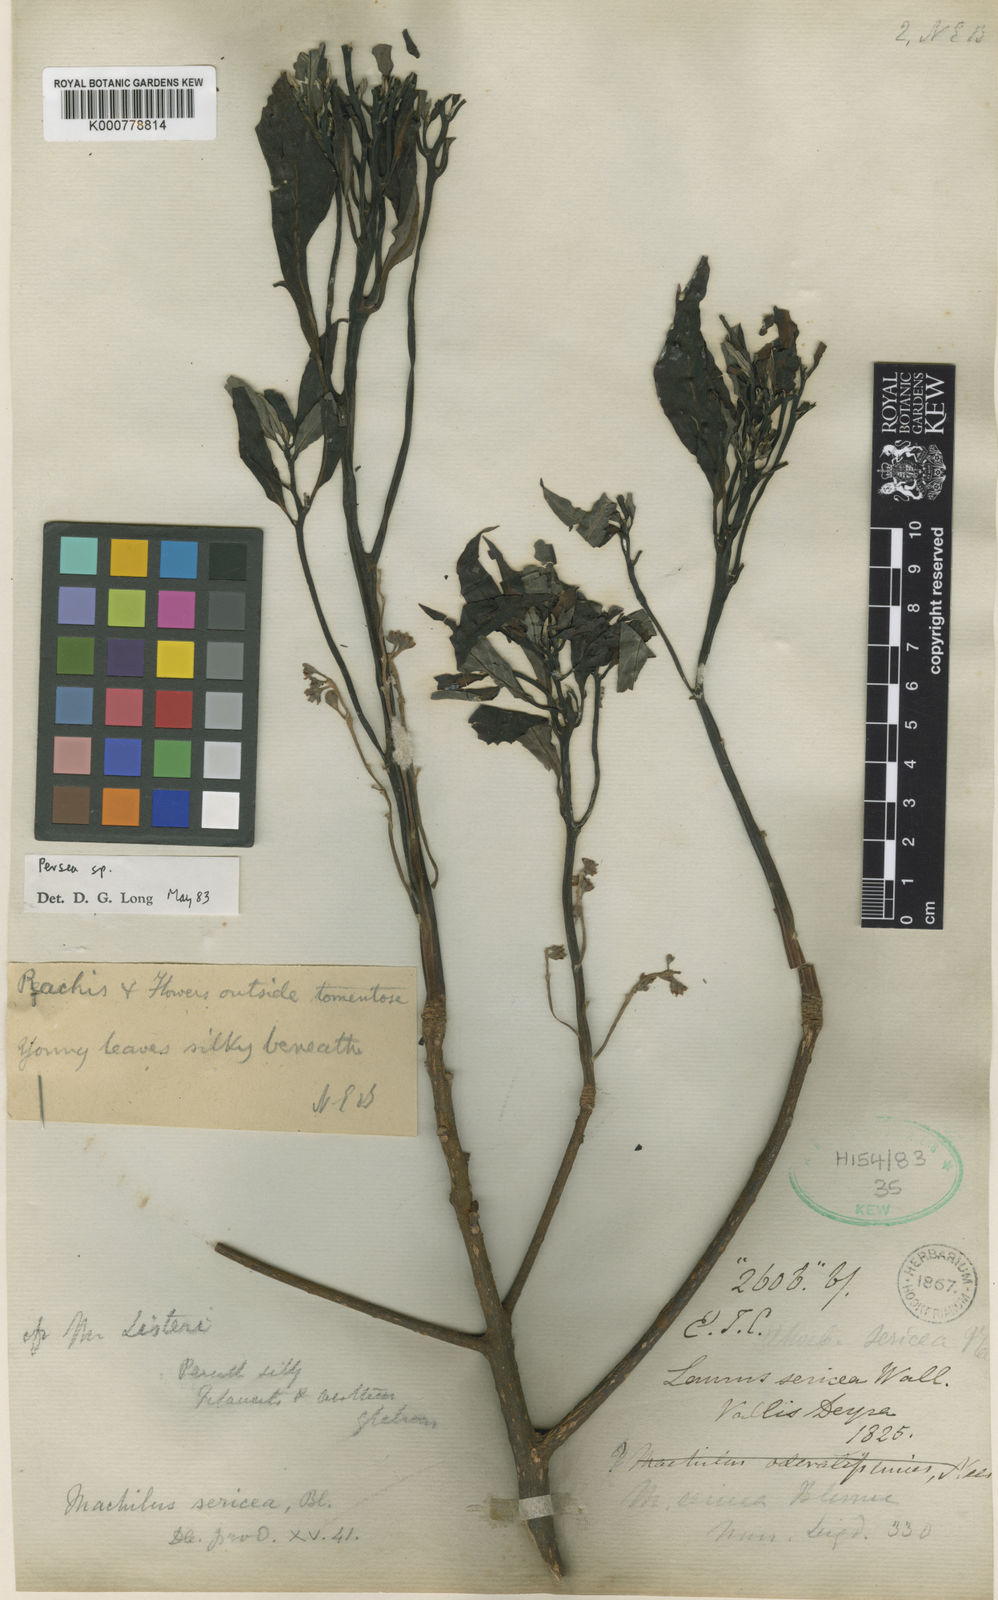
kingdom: Plantae
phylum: Tracheophyta
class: Magnoliopsida
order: Laurales
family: Lauraceae
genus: Persea
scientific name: Persea sericea
